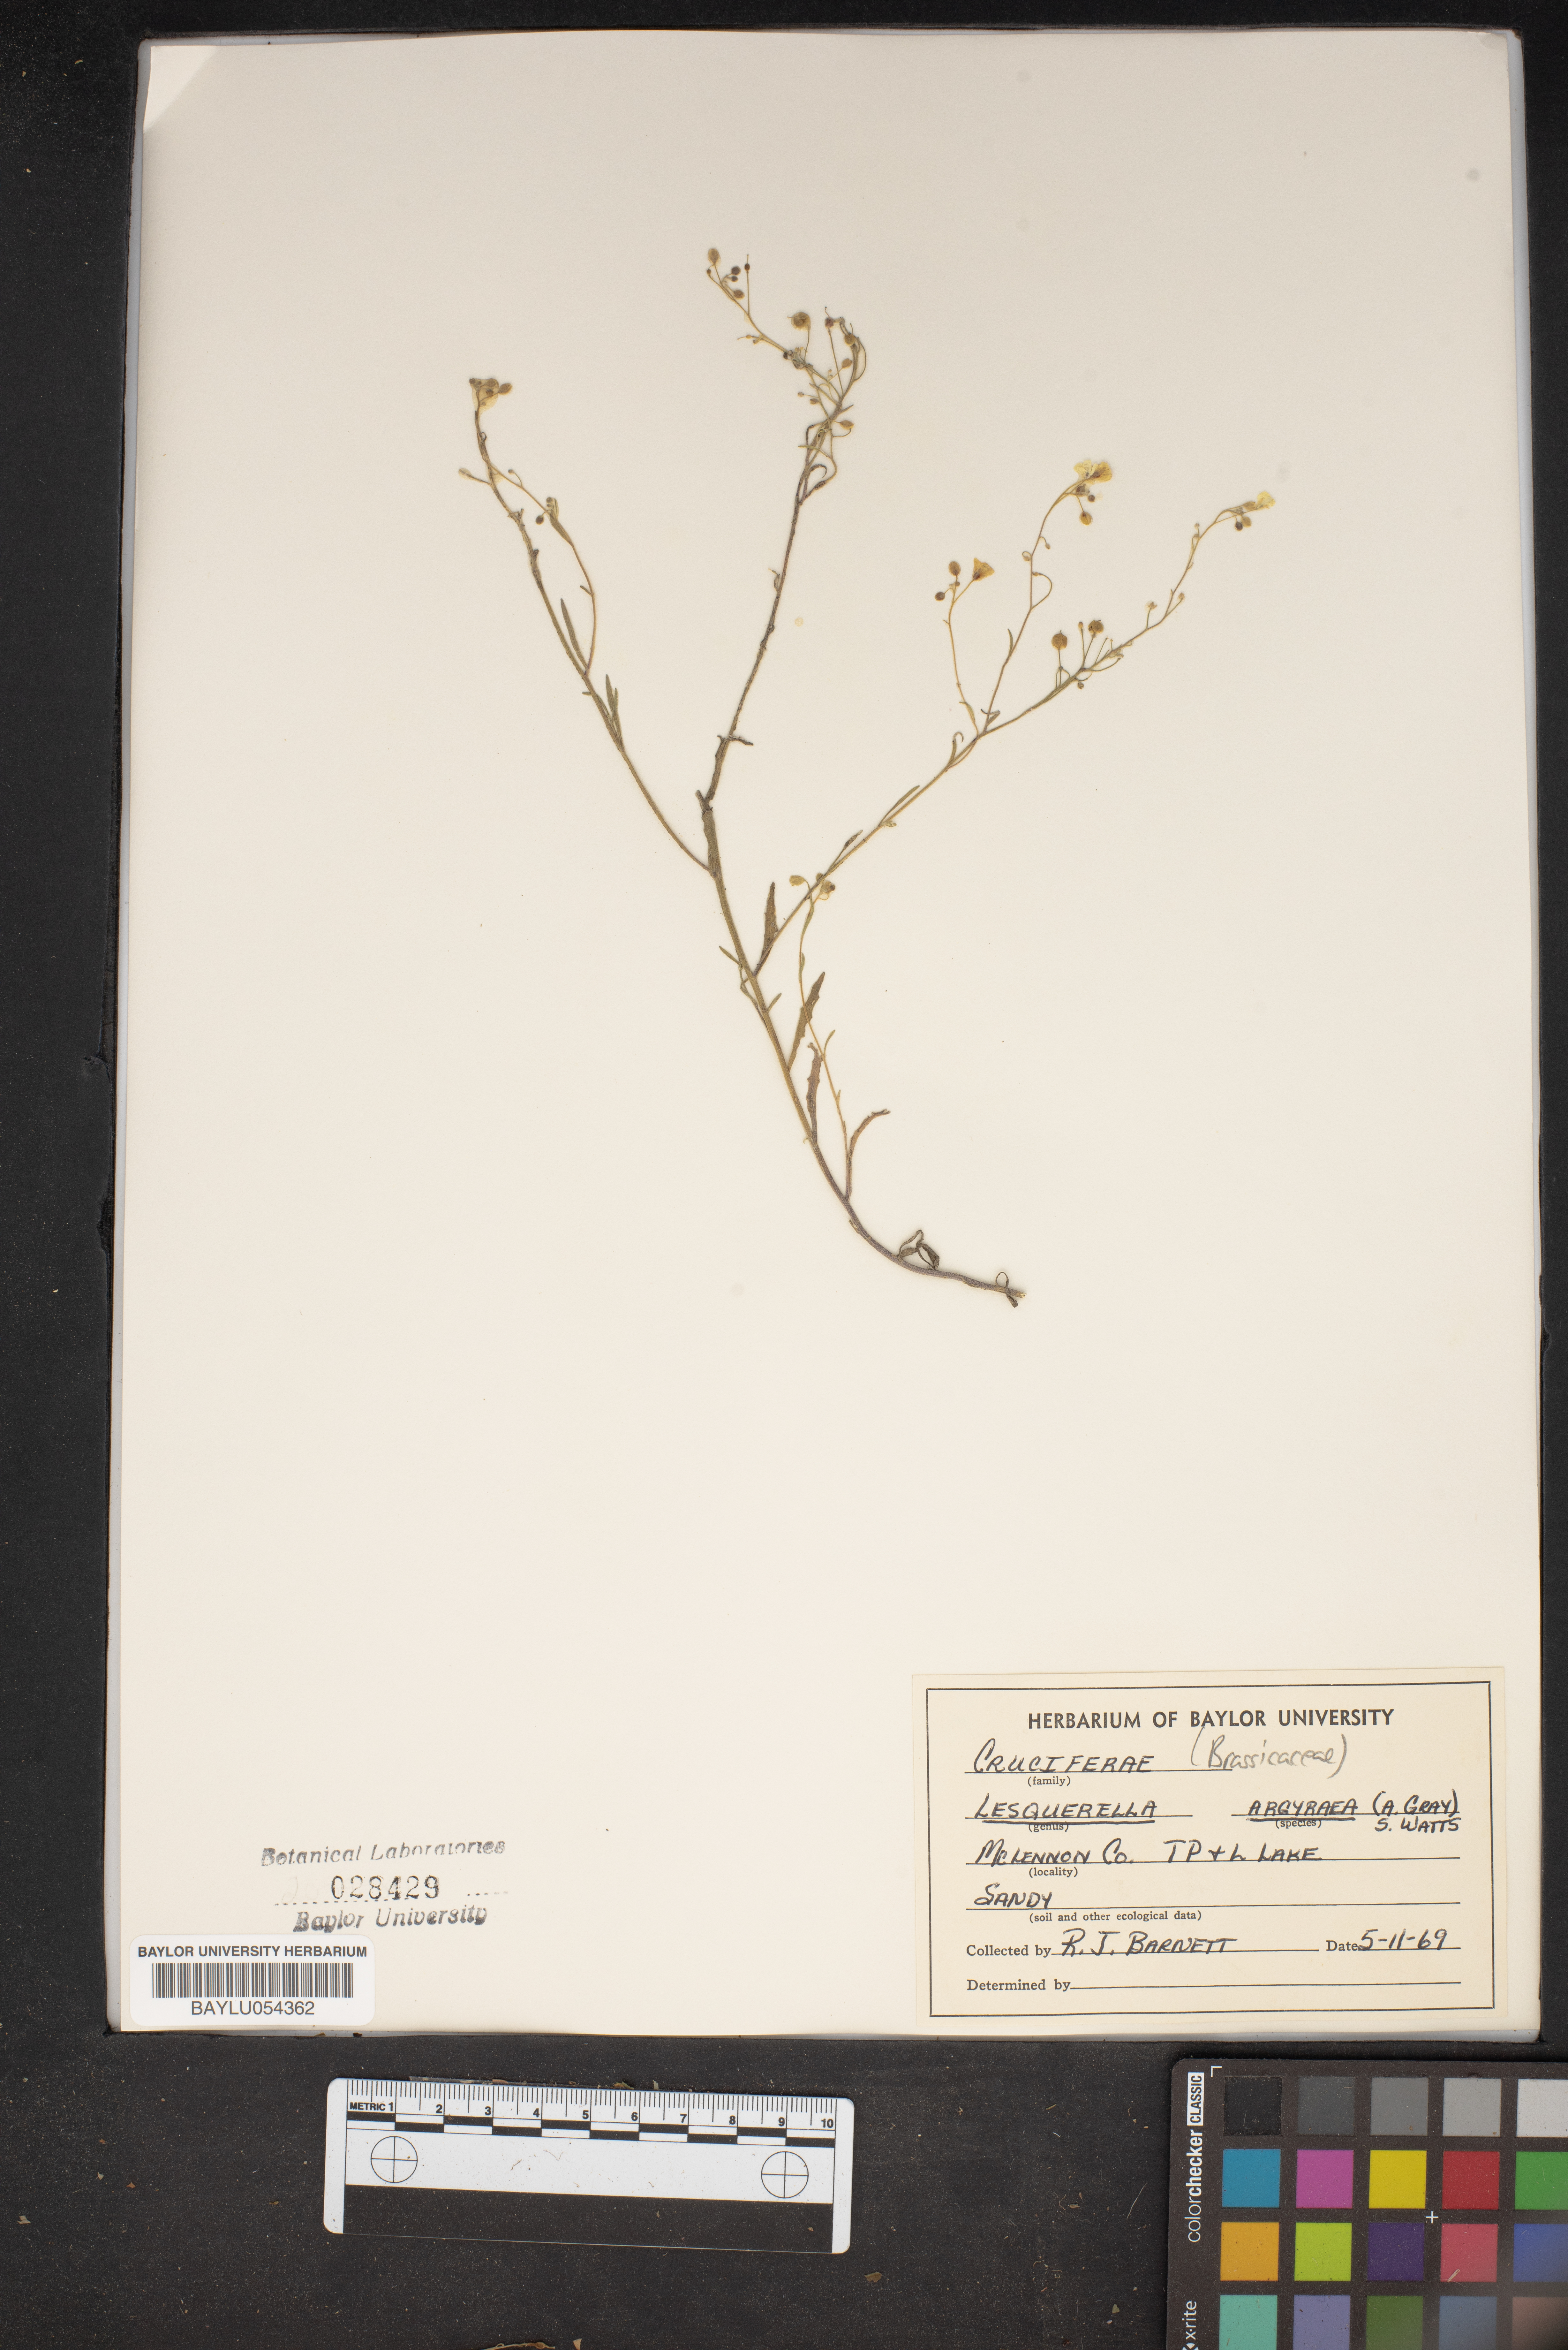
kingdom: Plantae
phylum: Tracheophyta
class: Magnoliopsida
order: Brassicales
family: Brassicaceae
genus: Physaria
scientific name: Physaria argyraea
